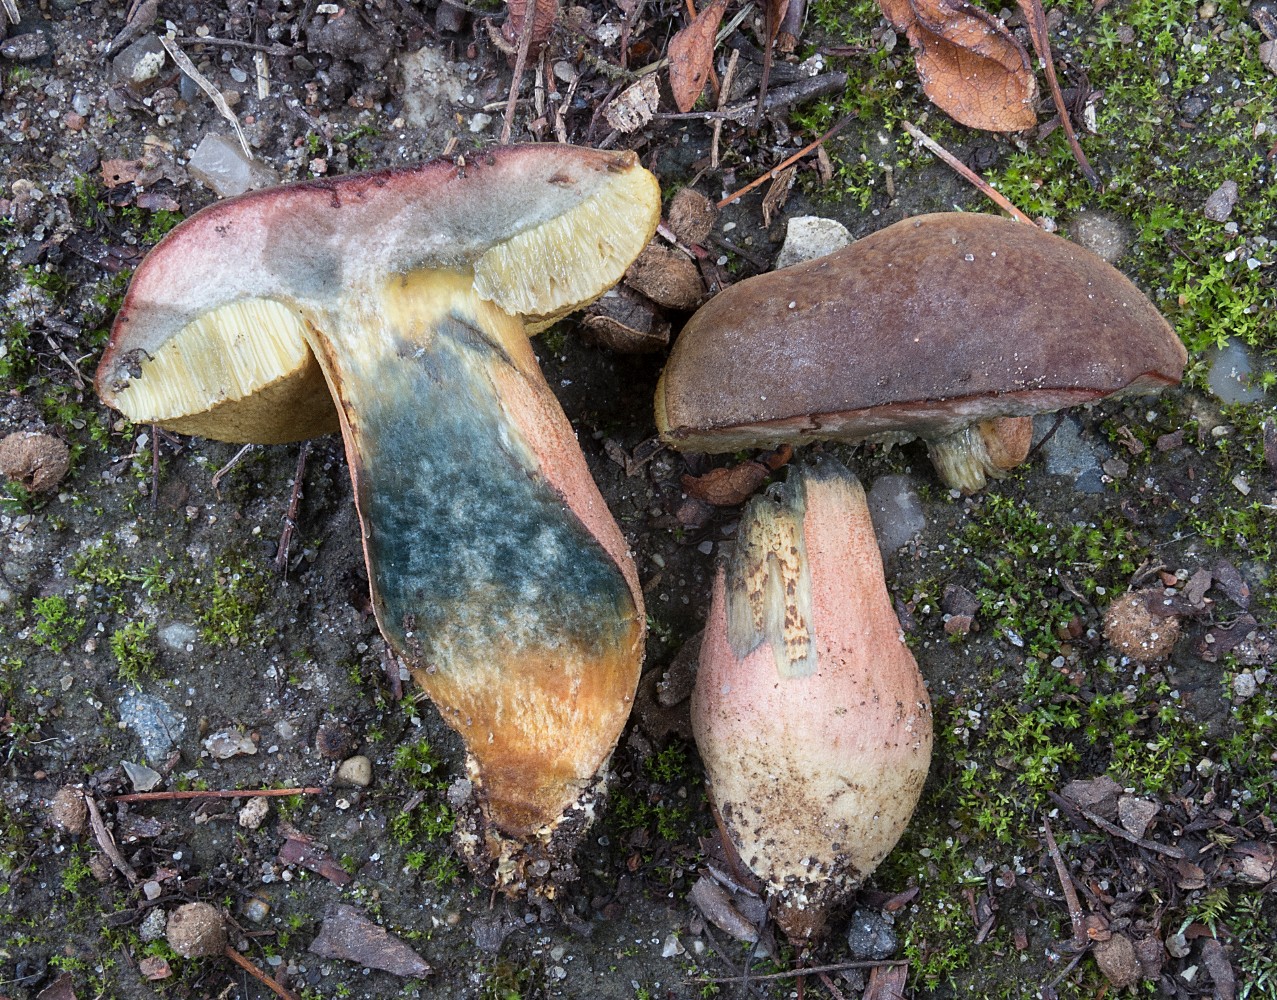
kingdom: Fungi
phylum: Basidiomycota
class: Agaricomycetes
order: Boletales
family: Boletaceae
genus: Hortiboletus
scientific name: Hortiboletus bubalinus
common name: aurora-rørhat
